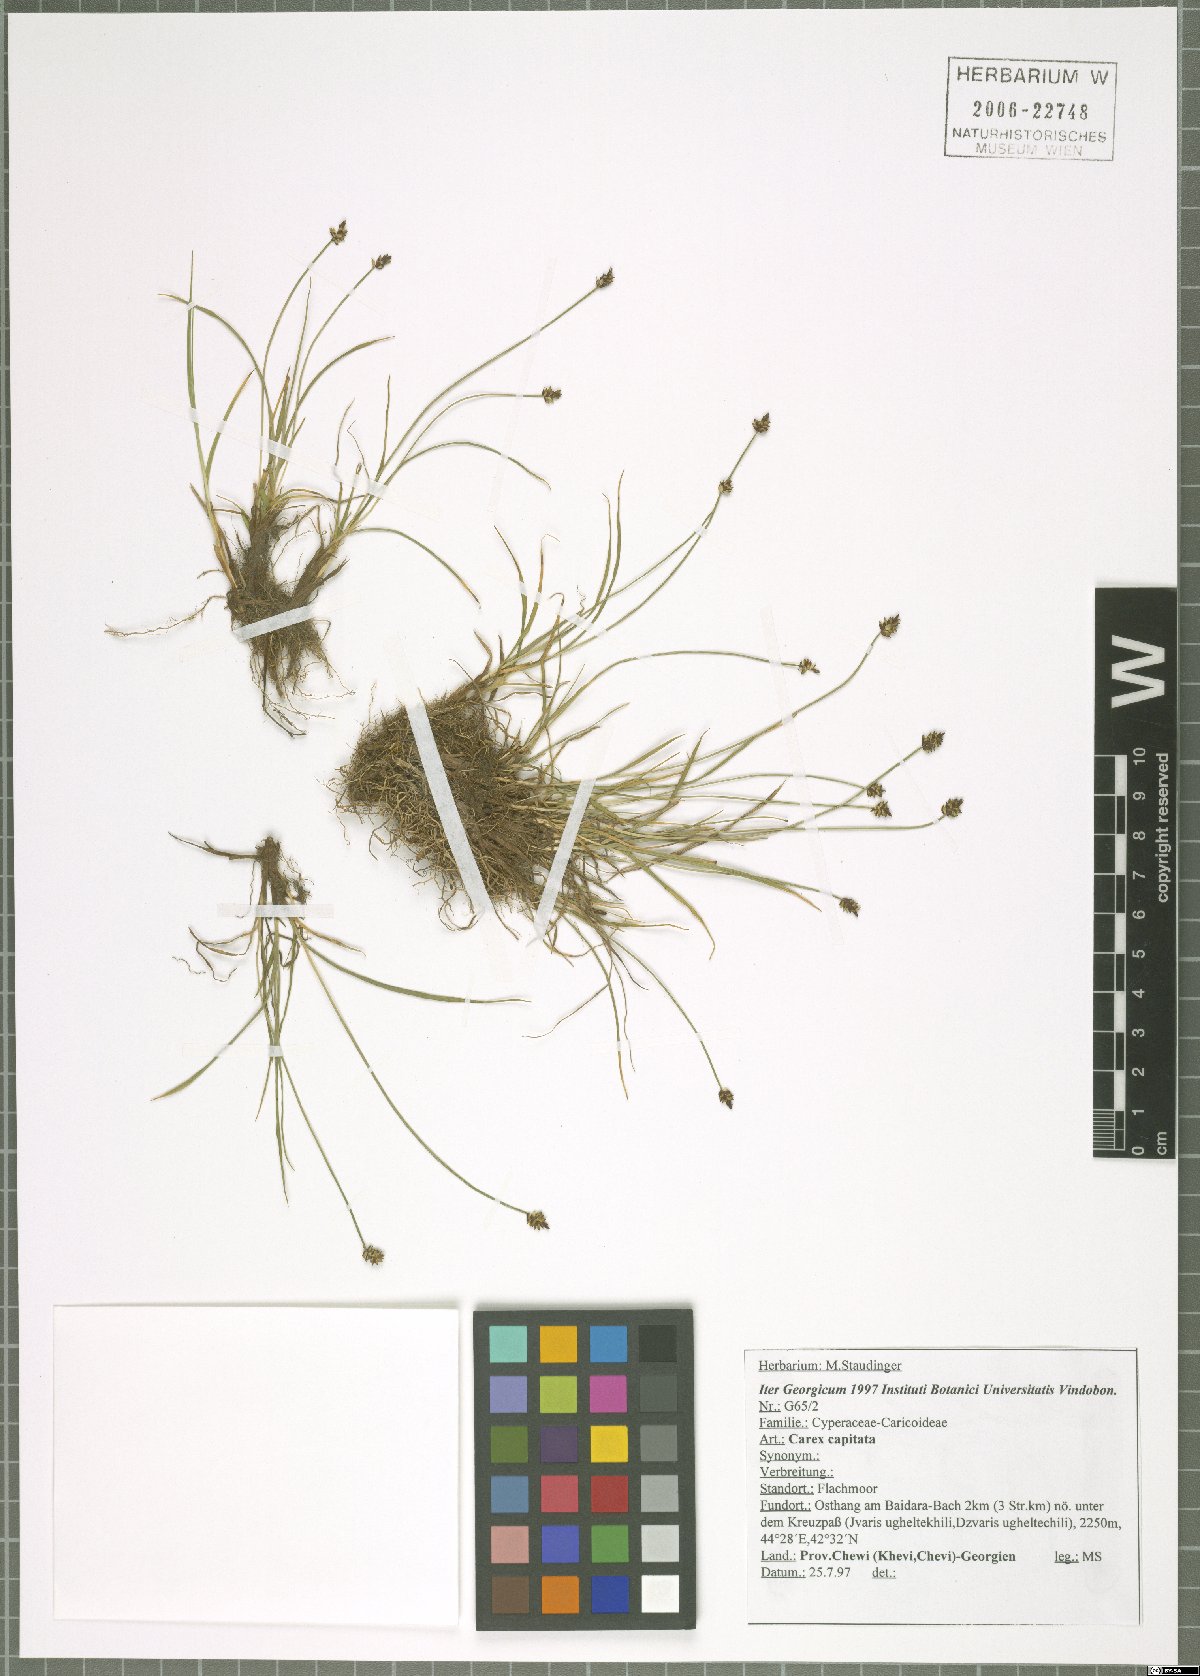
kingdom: Plantae
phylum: Tracheophyta
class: Liliopsida
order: Poales
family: Cyperaceae
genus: Carex
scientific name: Carex capitata
